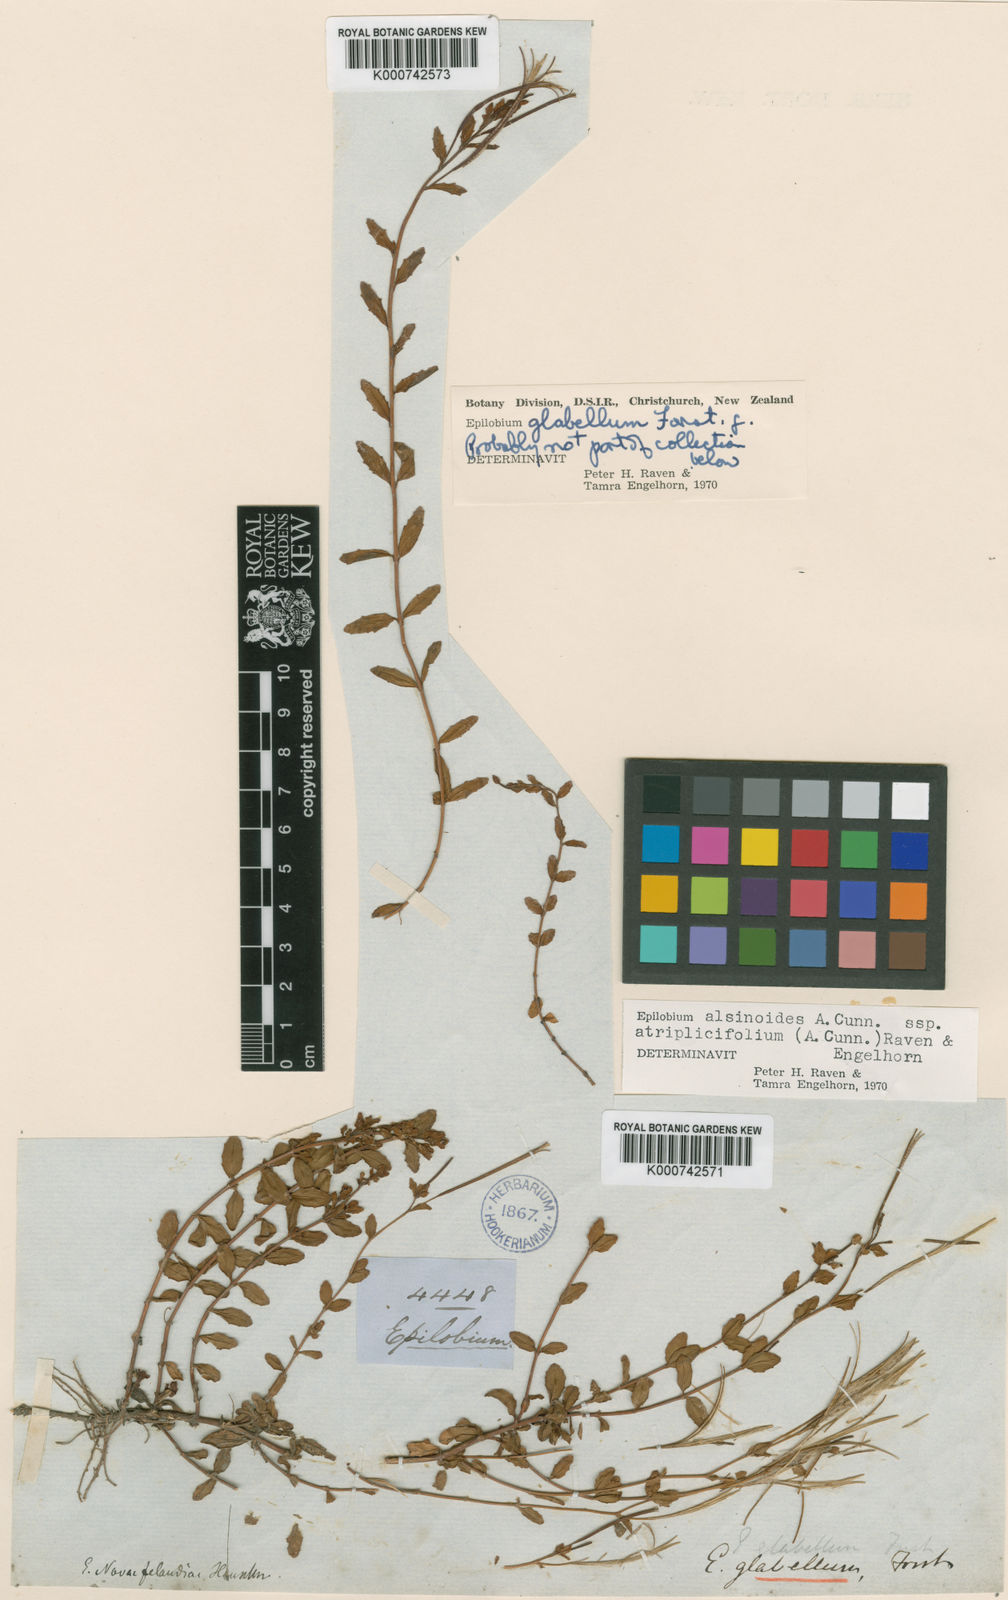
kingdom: Plantae
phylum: Tracheophyta
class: Magnoliopsida
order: Myrtales
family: Onagraceae
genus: Epilobium
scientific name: Epilobium alsinoides
